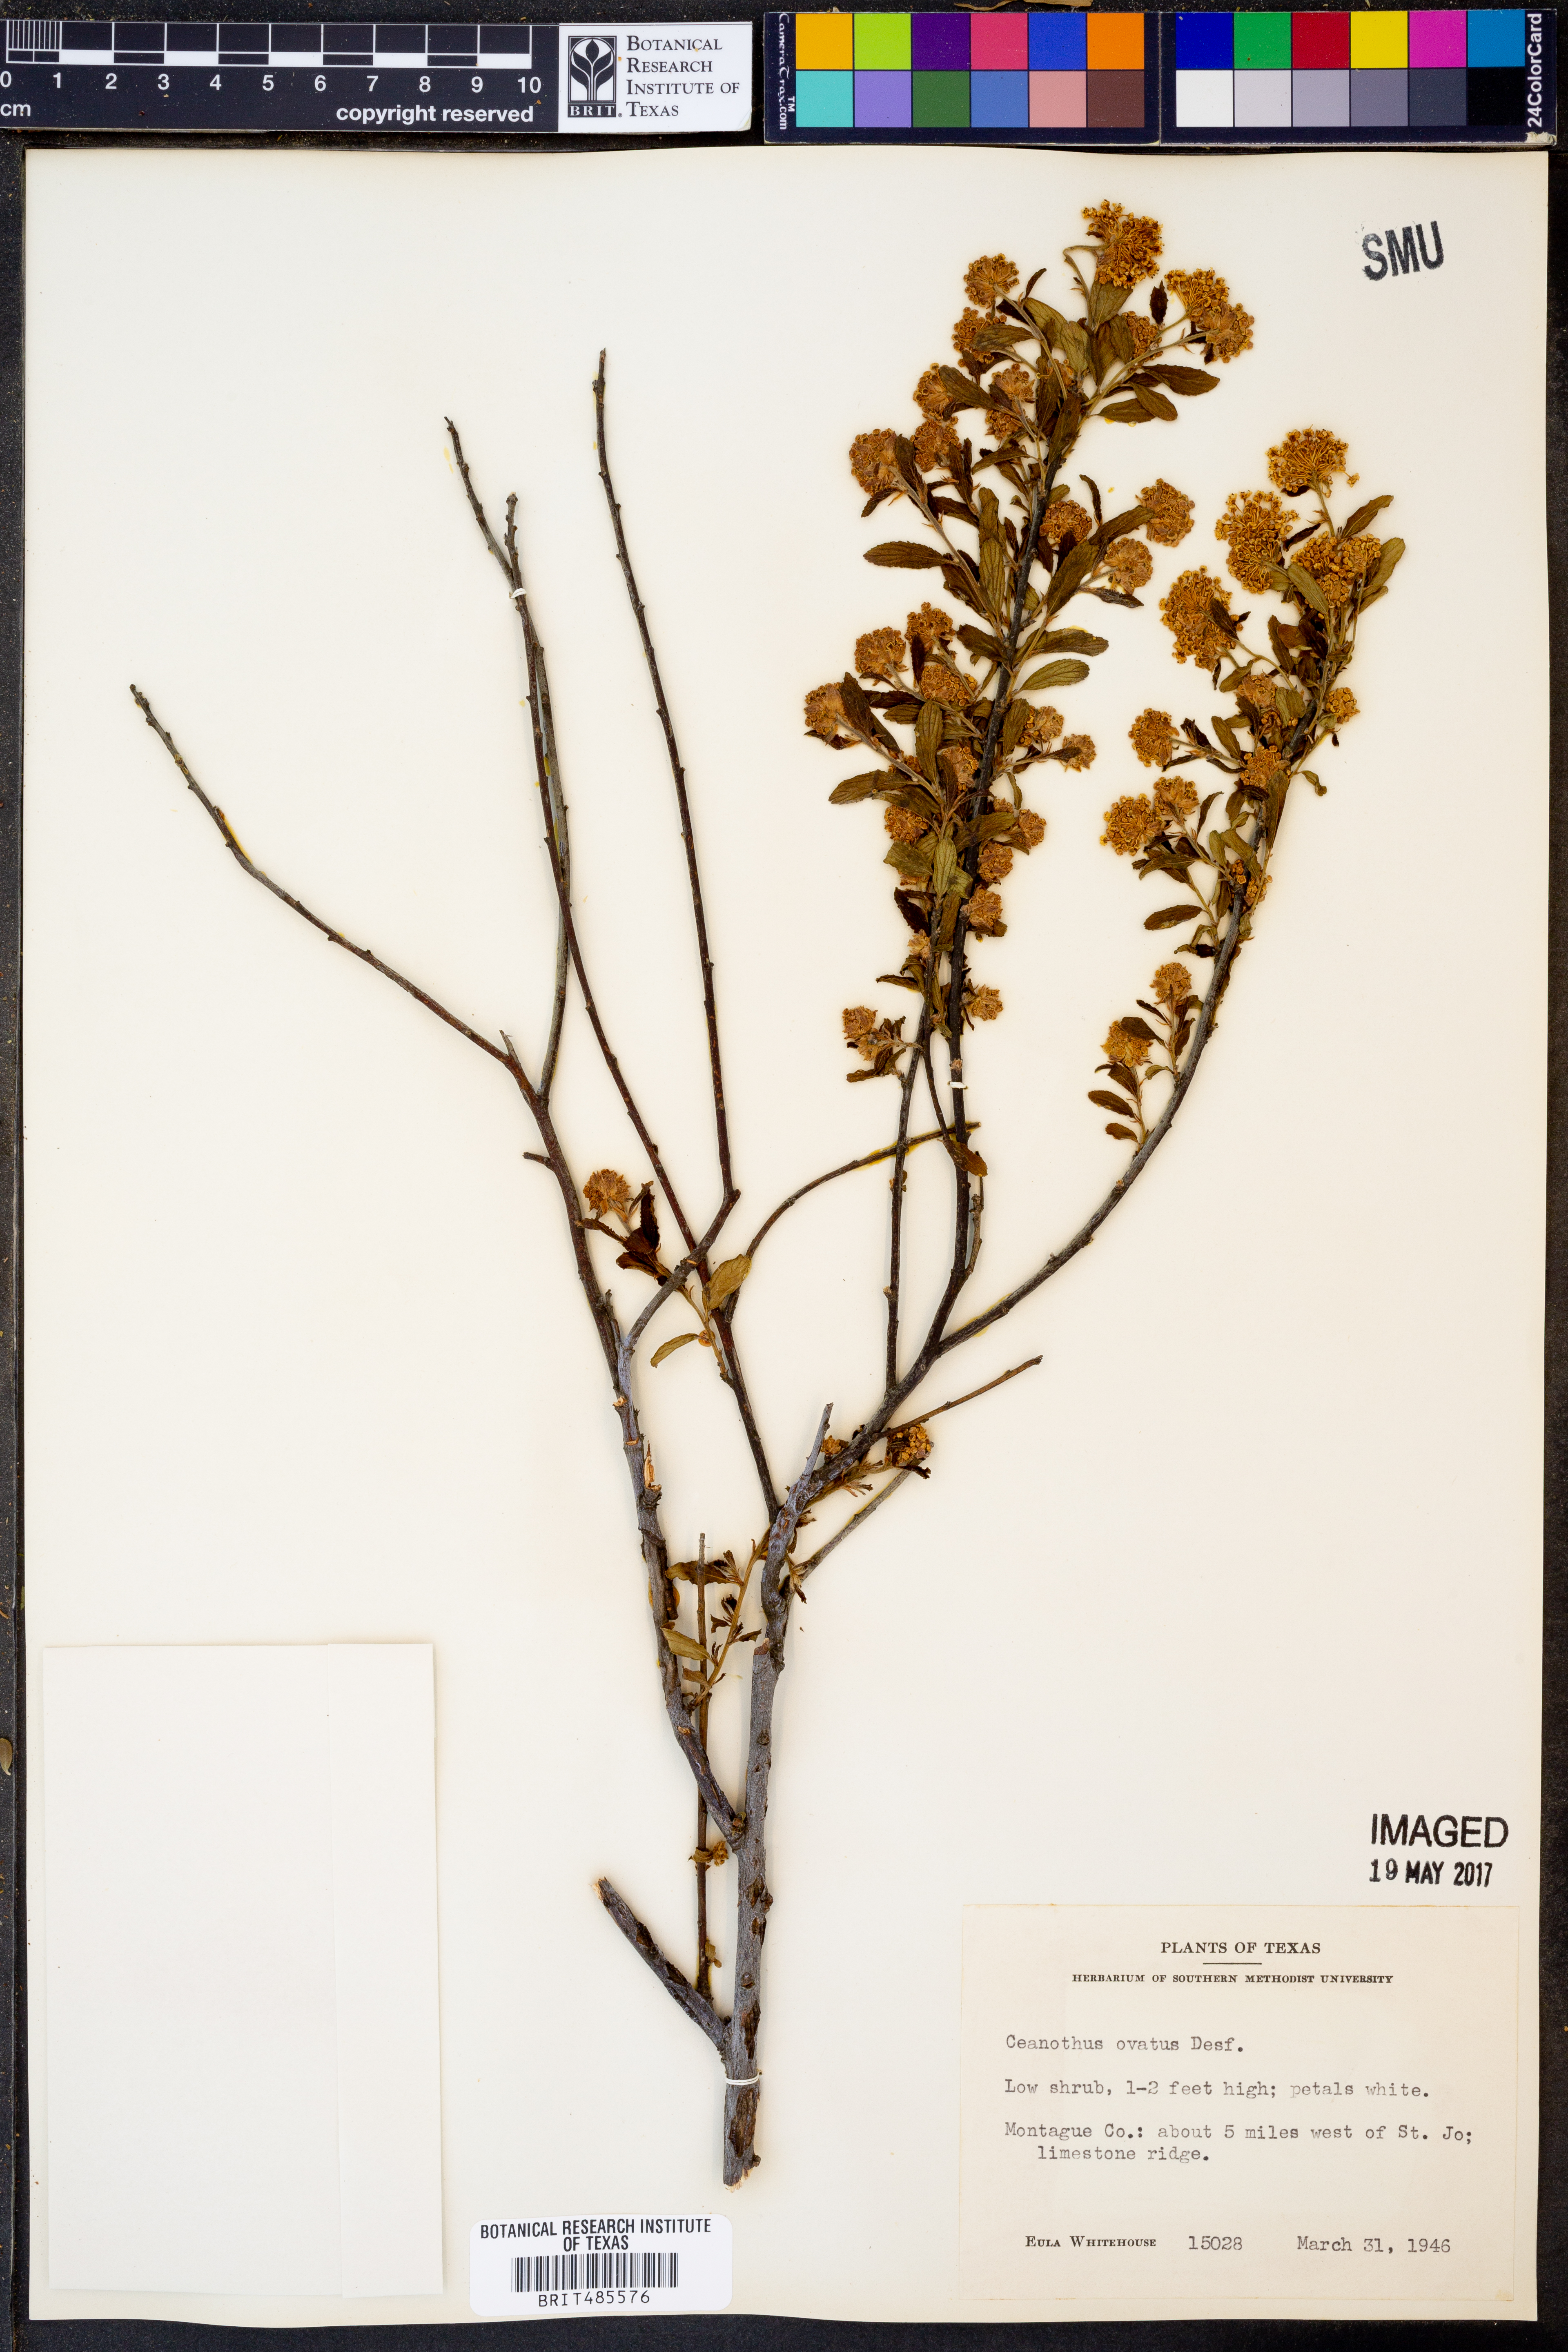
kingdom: Plantae
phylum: Tracheophyta
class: Magnoliopsida
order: Rosales
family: Rhamnaceae
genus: Ceanothus
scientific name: Ceanothus herbaceus
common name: Inland ceanothus
